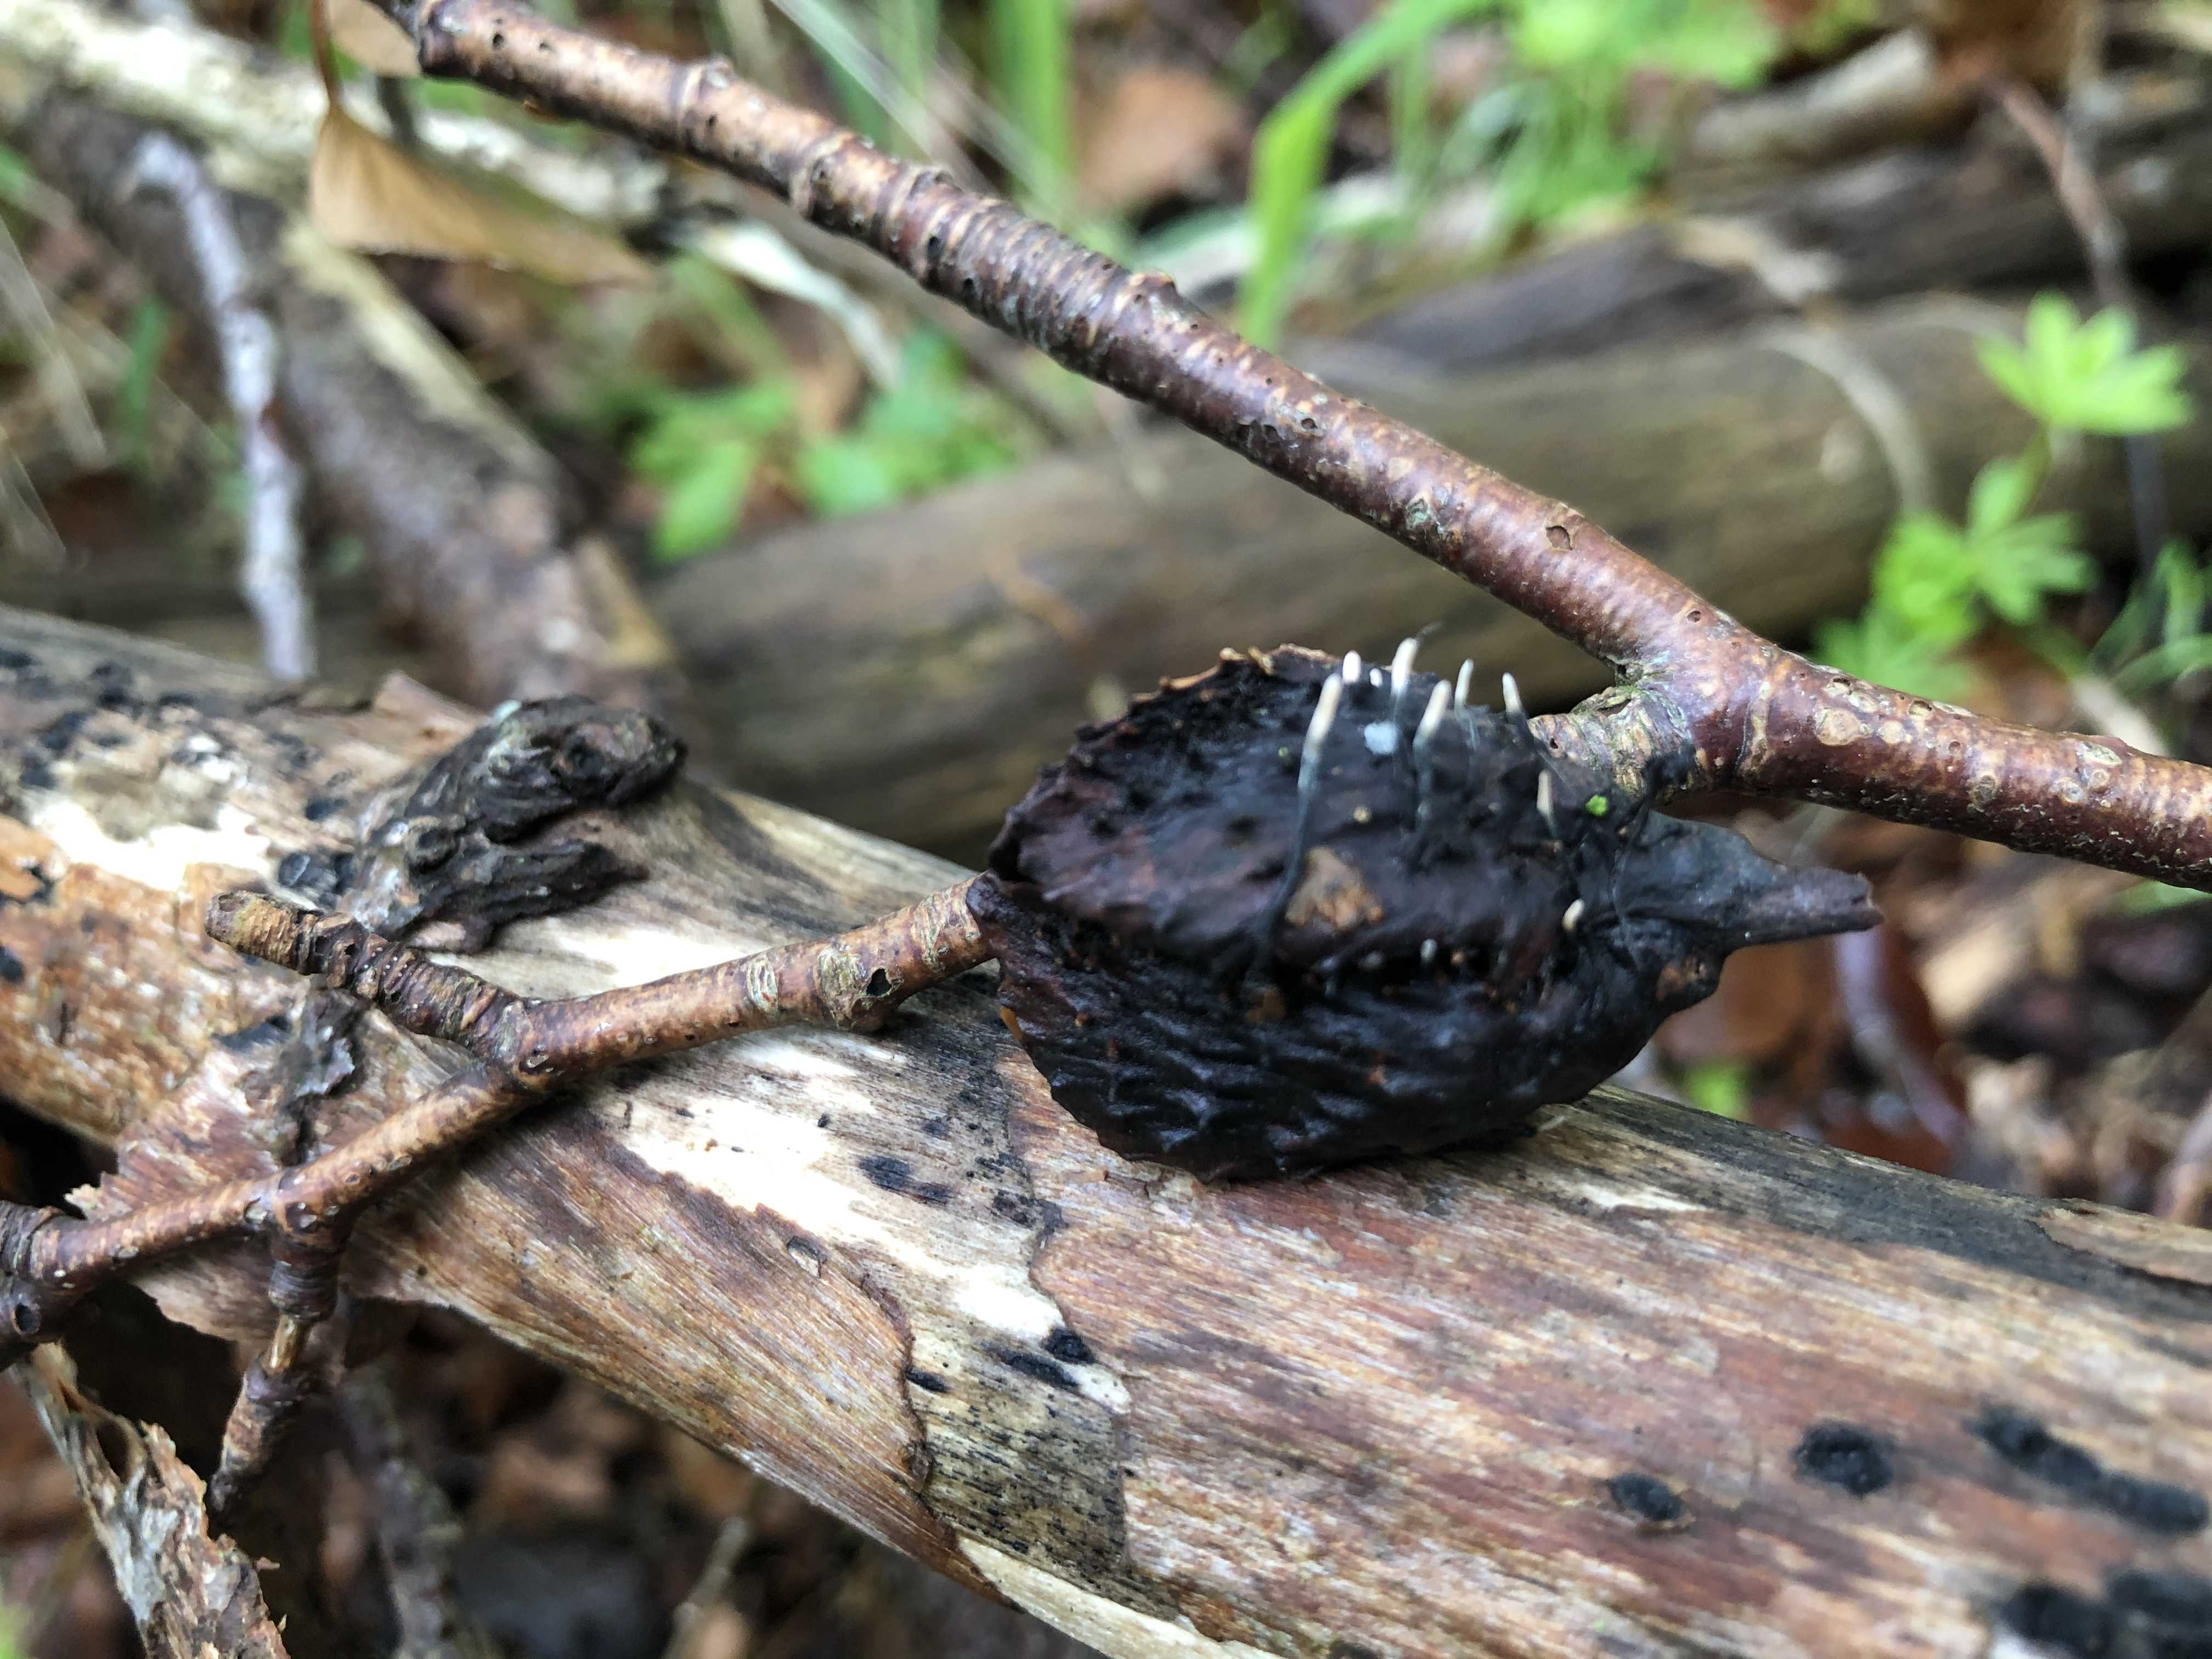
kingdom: Fungi
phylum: Ascomycota
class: Sordariomycetes
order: Xylariales
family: Xylariaceae
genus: Xylaria
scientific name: Xylaria carpophila
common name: bogskål-stødsvamp
